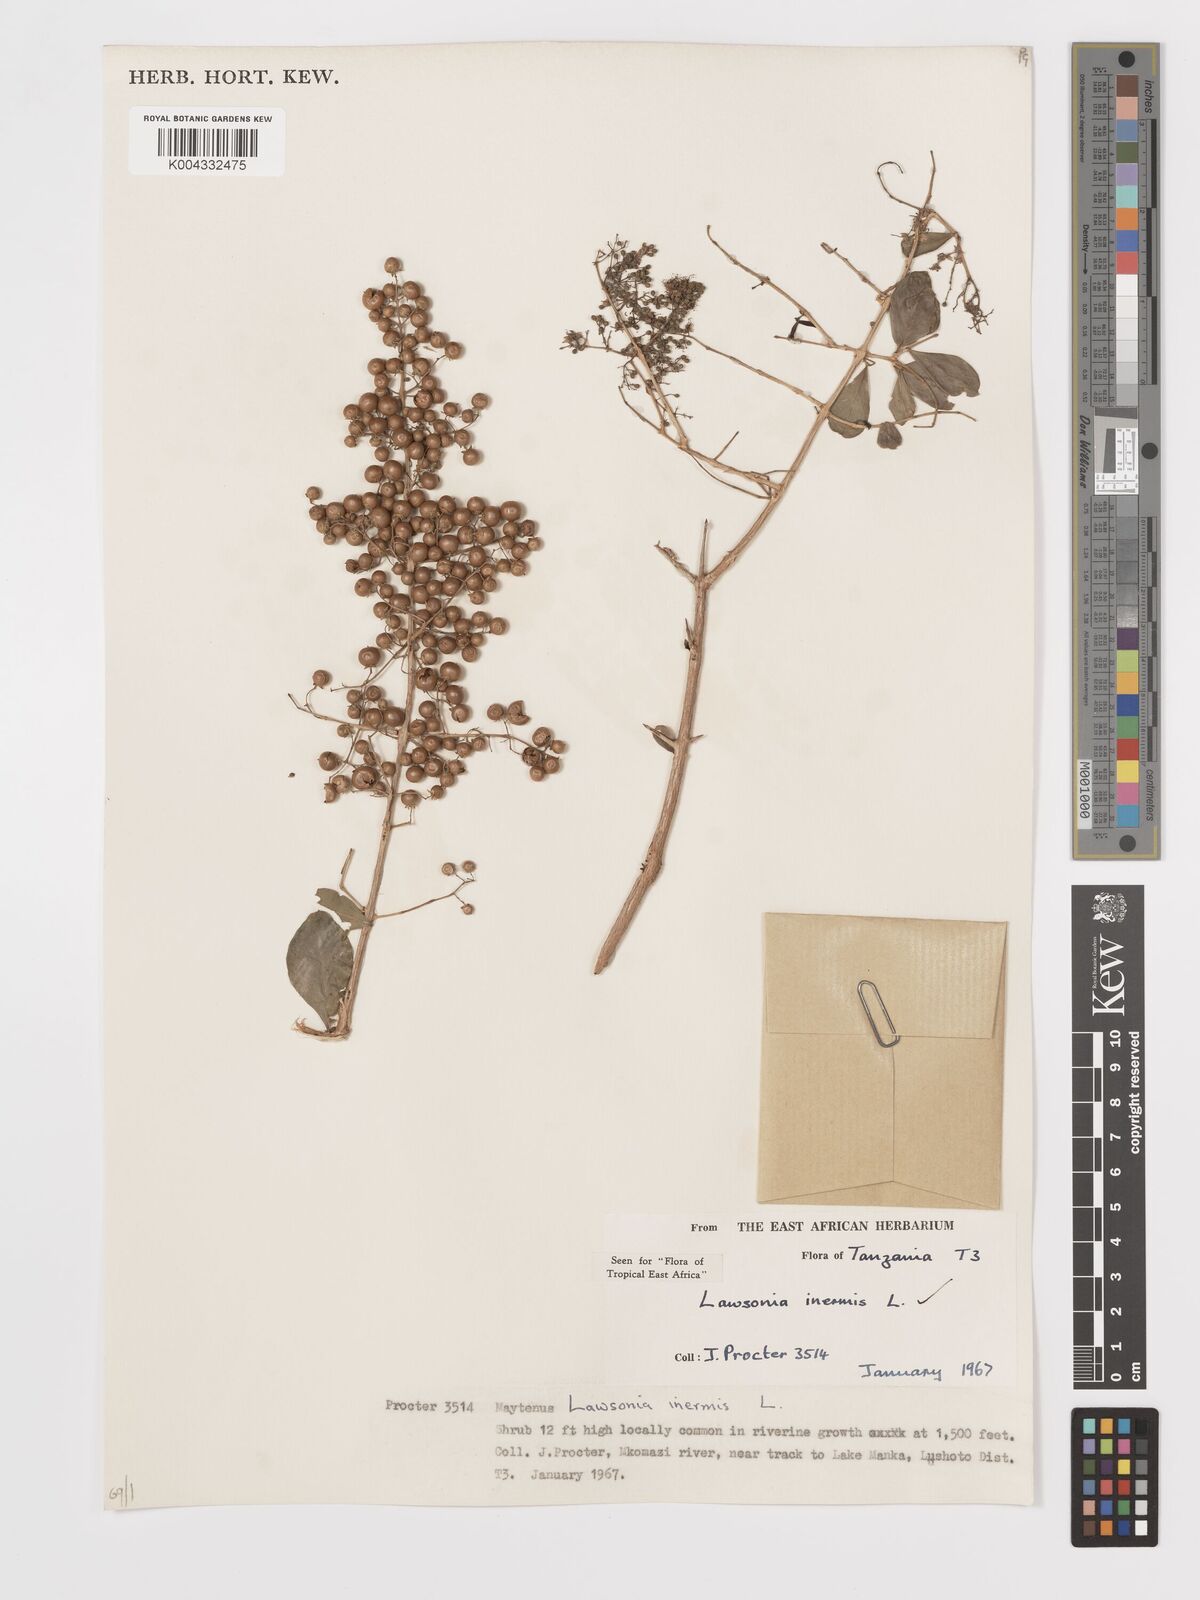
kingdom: Plantae
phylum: Tracheophyta
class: Magnoliopsida
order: Myrtales
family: Lythraceae
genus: Lawsonia
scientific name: Lawsonia inermis
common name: Henna
